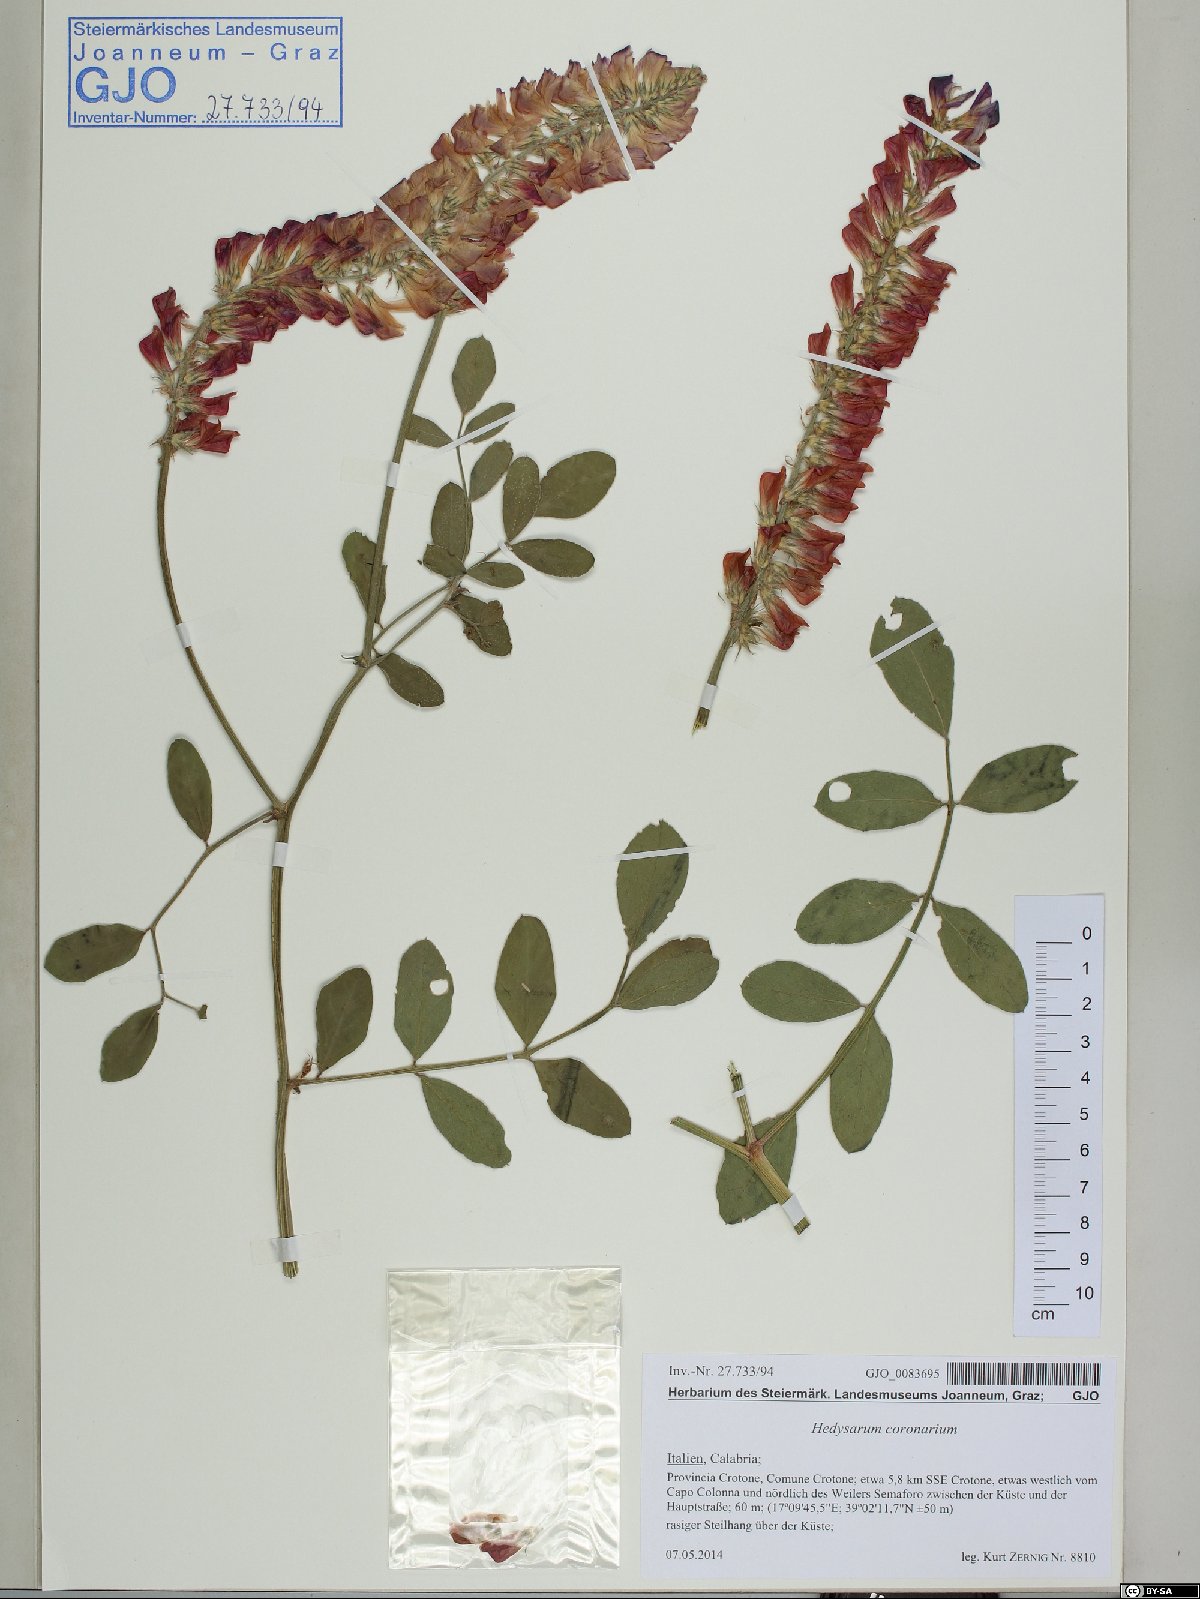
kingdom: Plantae
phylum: Tracheophyta
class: Magnoliopsida
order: Fabales
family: Fabaceae
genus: Sulla
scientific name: Sulla coronaria
